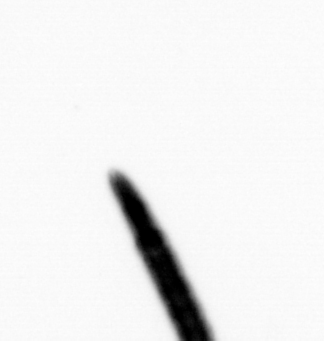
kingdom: Chromista
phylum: Ochrophyta
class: Bacillariophyceae
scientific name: Bacillariophyceae
